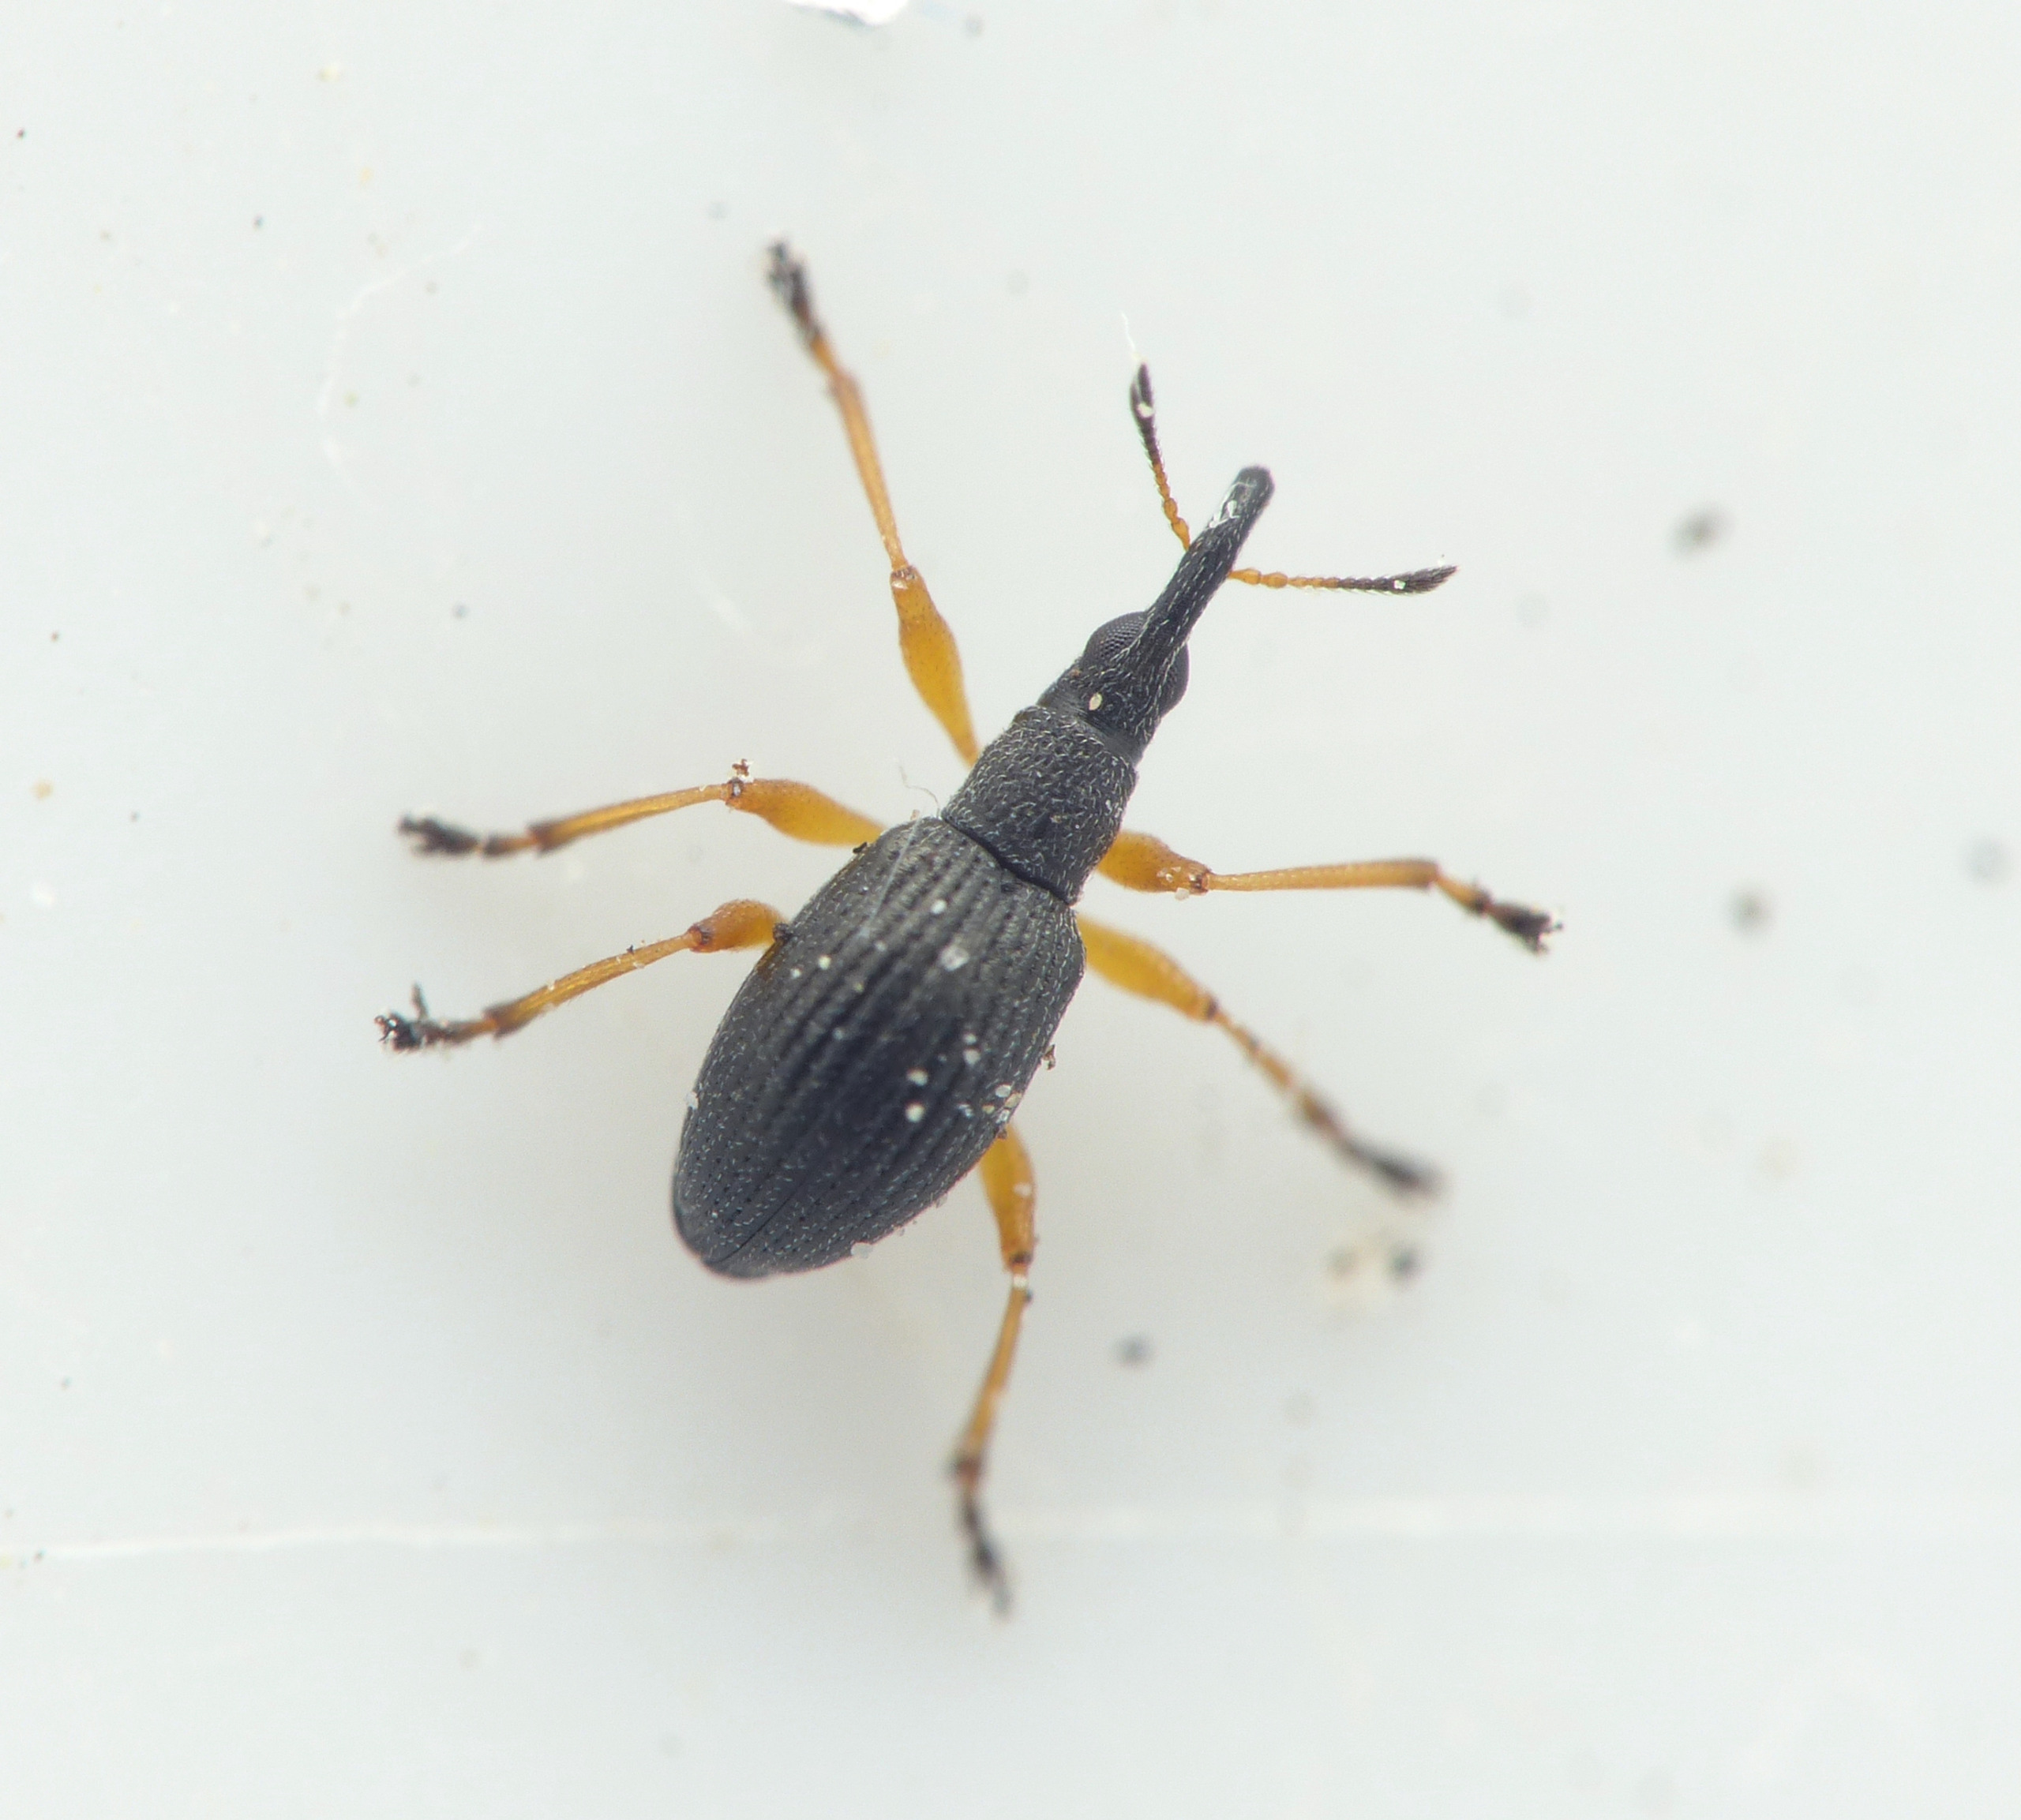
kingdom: Animalia
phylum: Arthropoda
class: Insecta
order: Coleoptera
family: Apionidae
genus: Protapion
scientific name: Protapion fulvipes
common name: Hvidkløversnudebille
